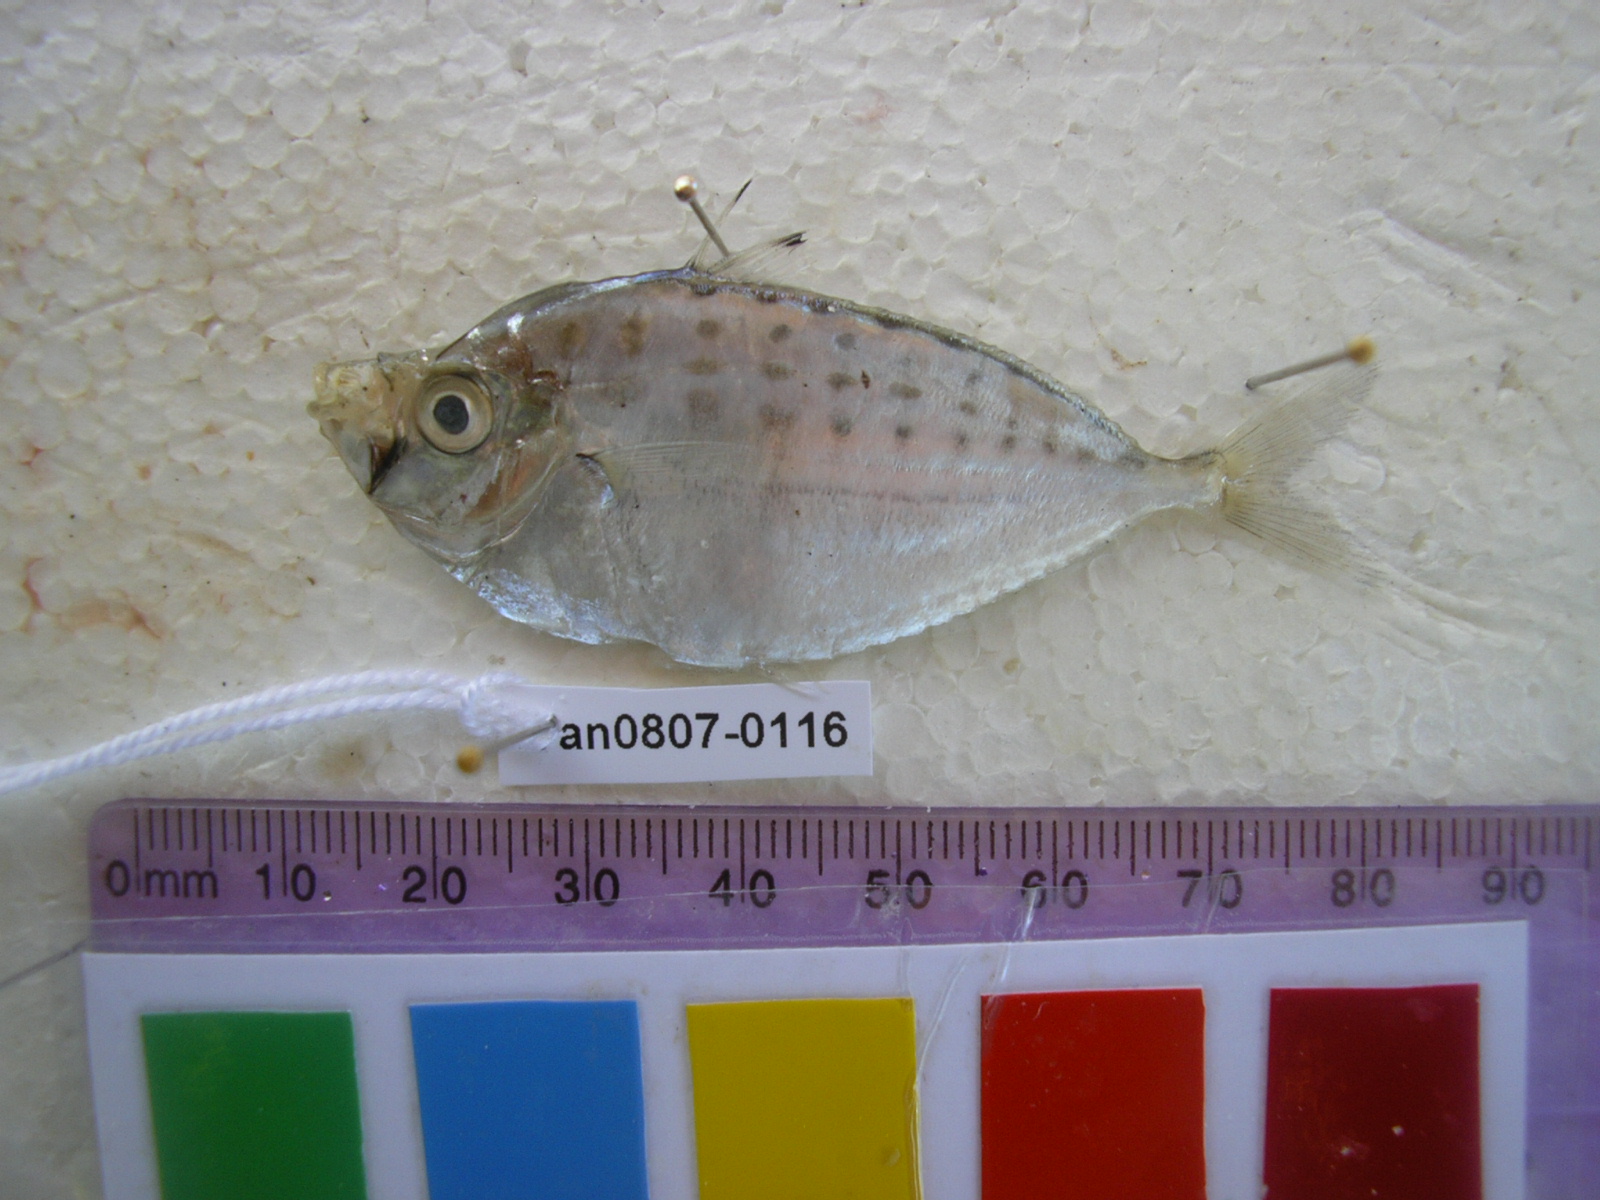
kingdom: Animalia
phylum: Chordata
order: Perciformes
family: Leiognathidae
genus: Secutor
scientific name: Secutor insidiator
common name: Pugnose ponyfish
